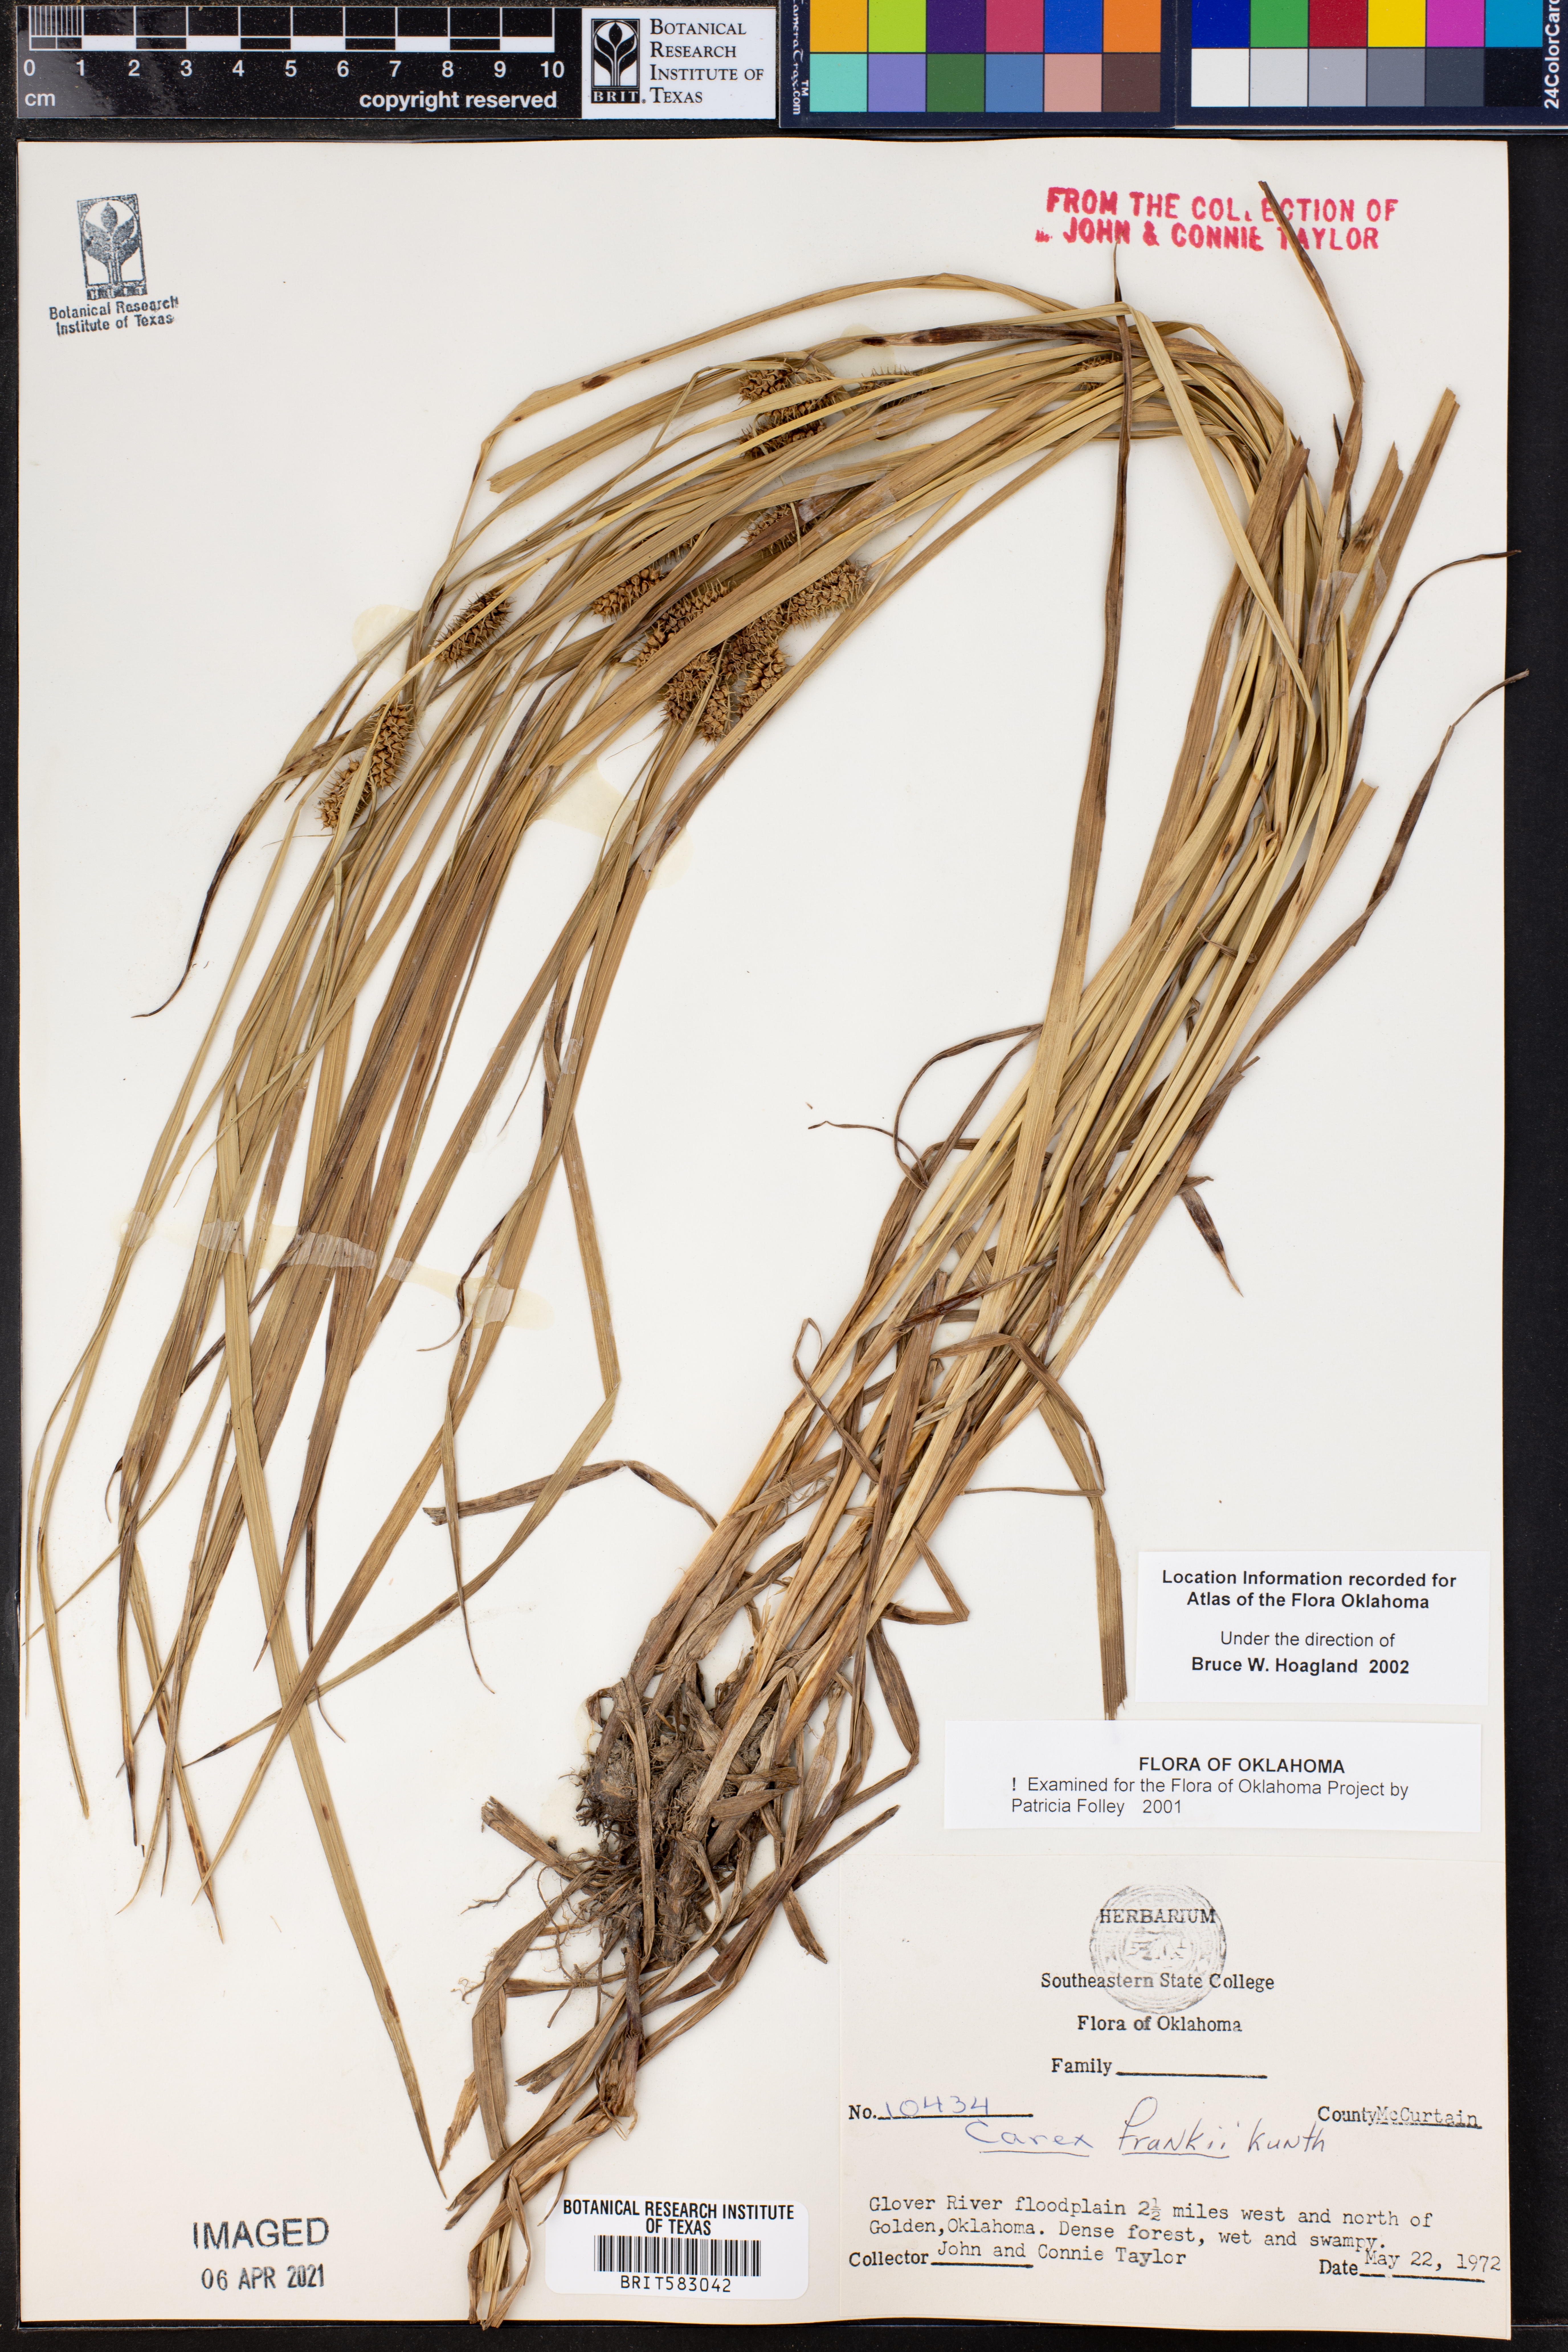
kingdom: Plantae
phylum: Tracheophyta
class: Liliopsida
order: Poales
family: Cyperaceae
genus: Carex
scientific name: Carex frankii
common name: Frank's sedge
